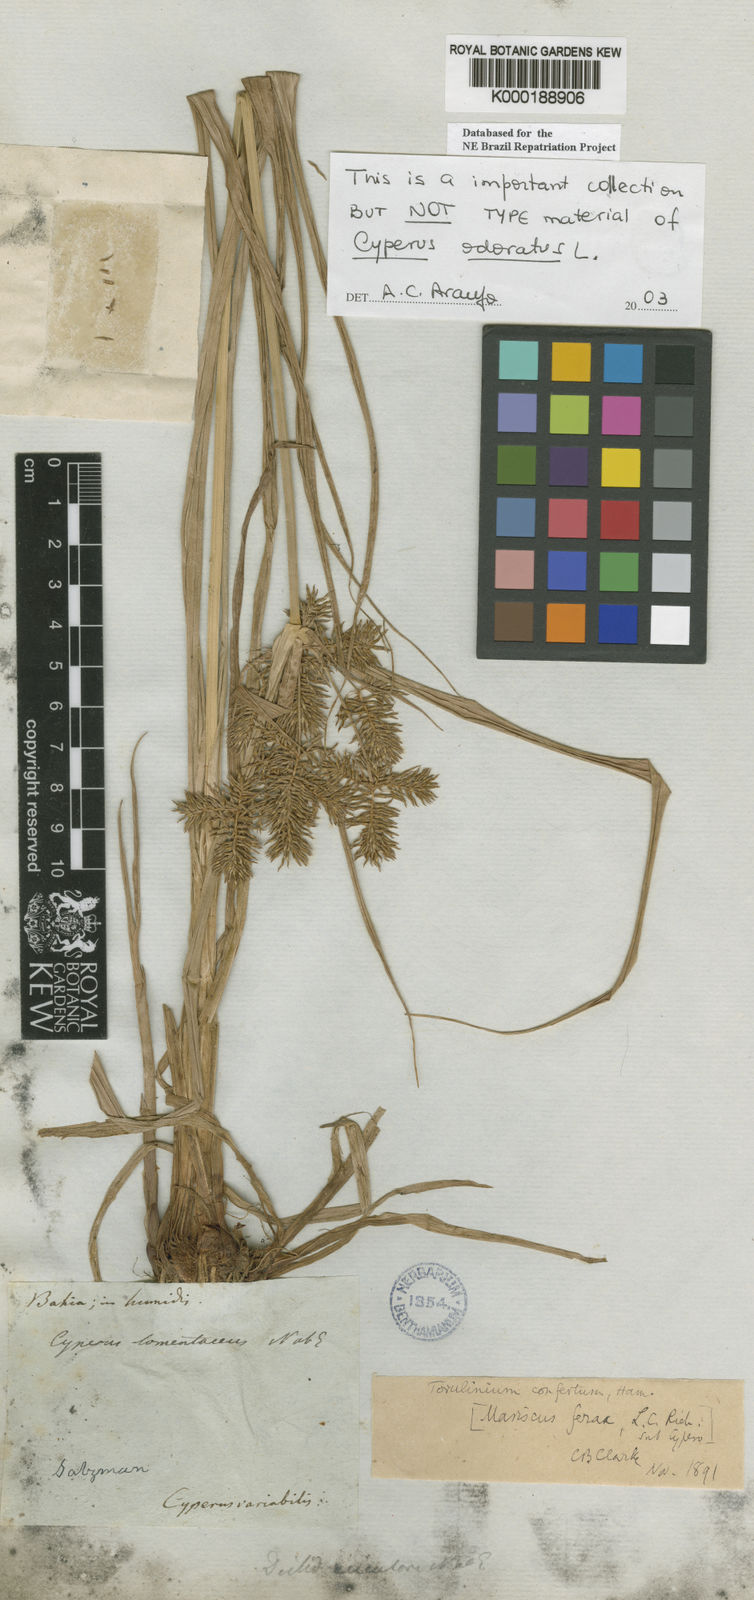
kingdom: Plantae
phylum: Tracheophyta
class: Liliopsida
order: Poales
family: Cyperaceae
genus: Cyperus
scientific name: Cyperus odoratus
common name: Fragrant flatsedge
